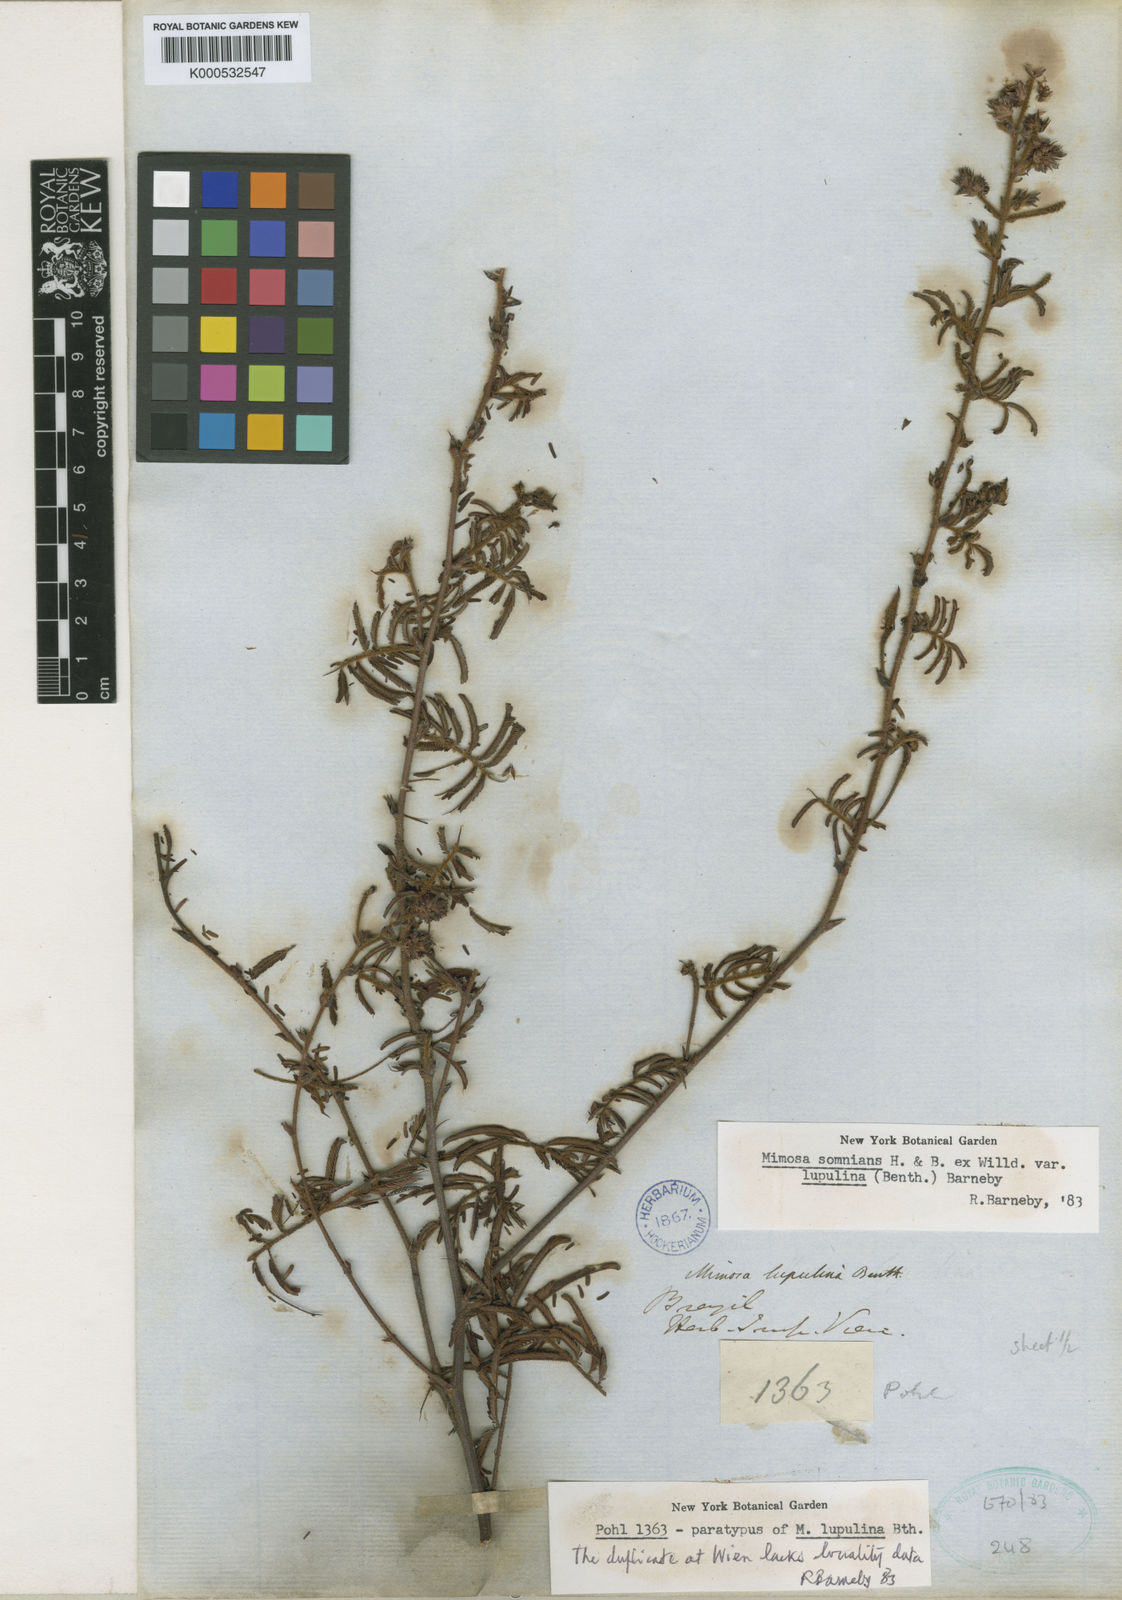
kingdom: Plantae
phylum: Tracheophyta
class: Magnoliopsida
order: Fabales
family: Fabaceae
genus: Mimosa
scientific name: Mimosa somnians
